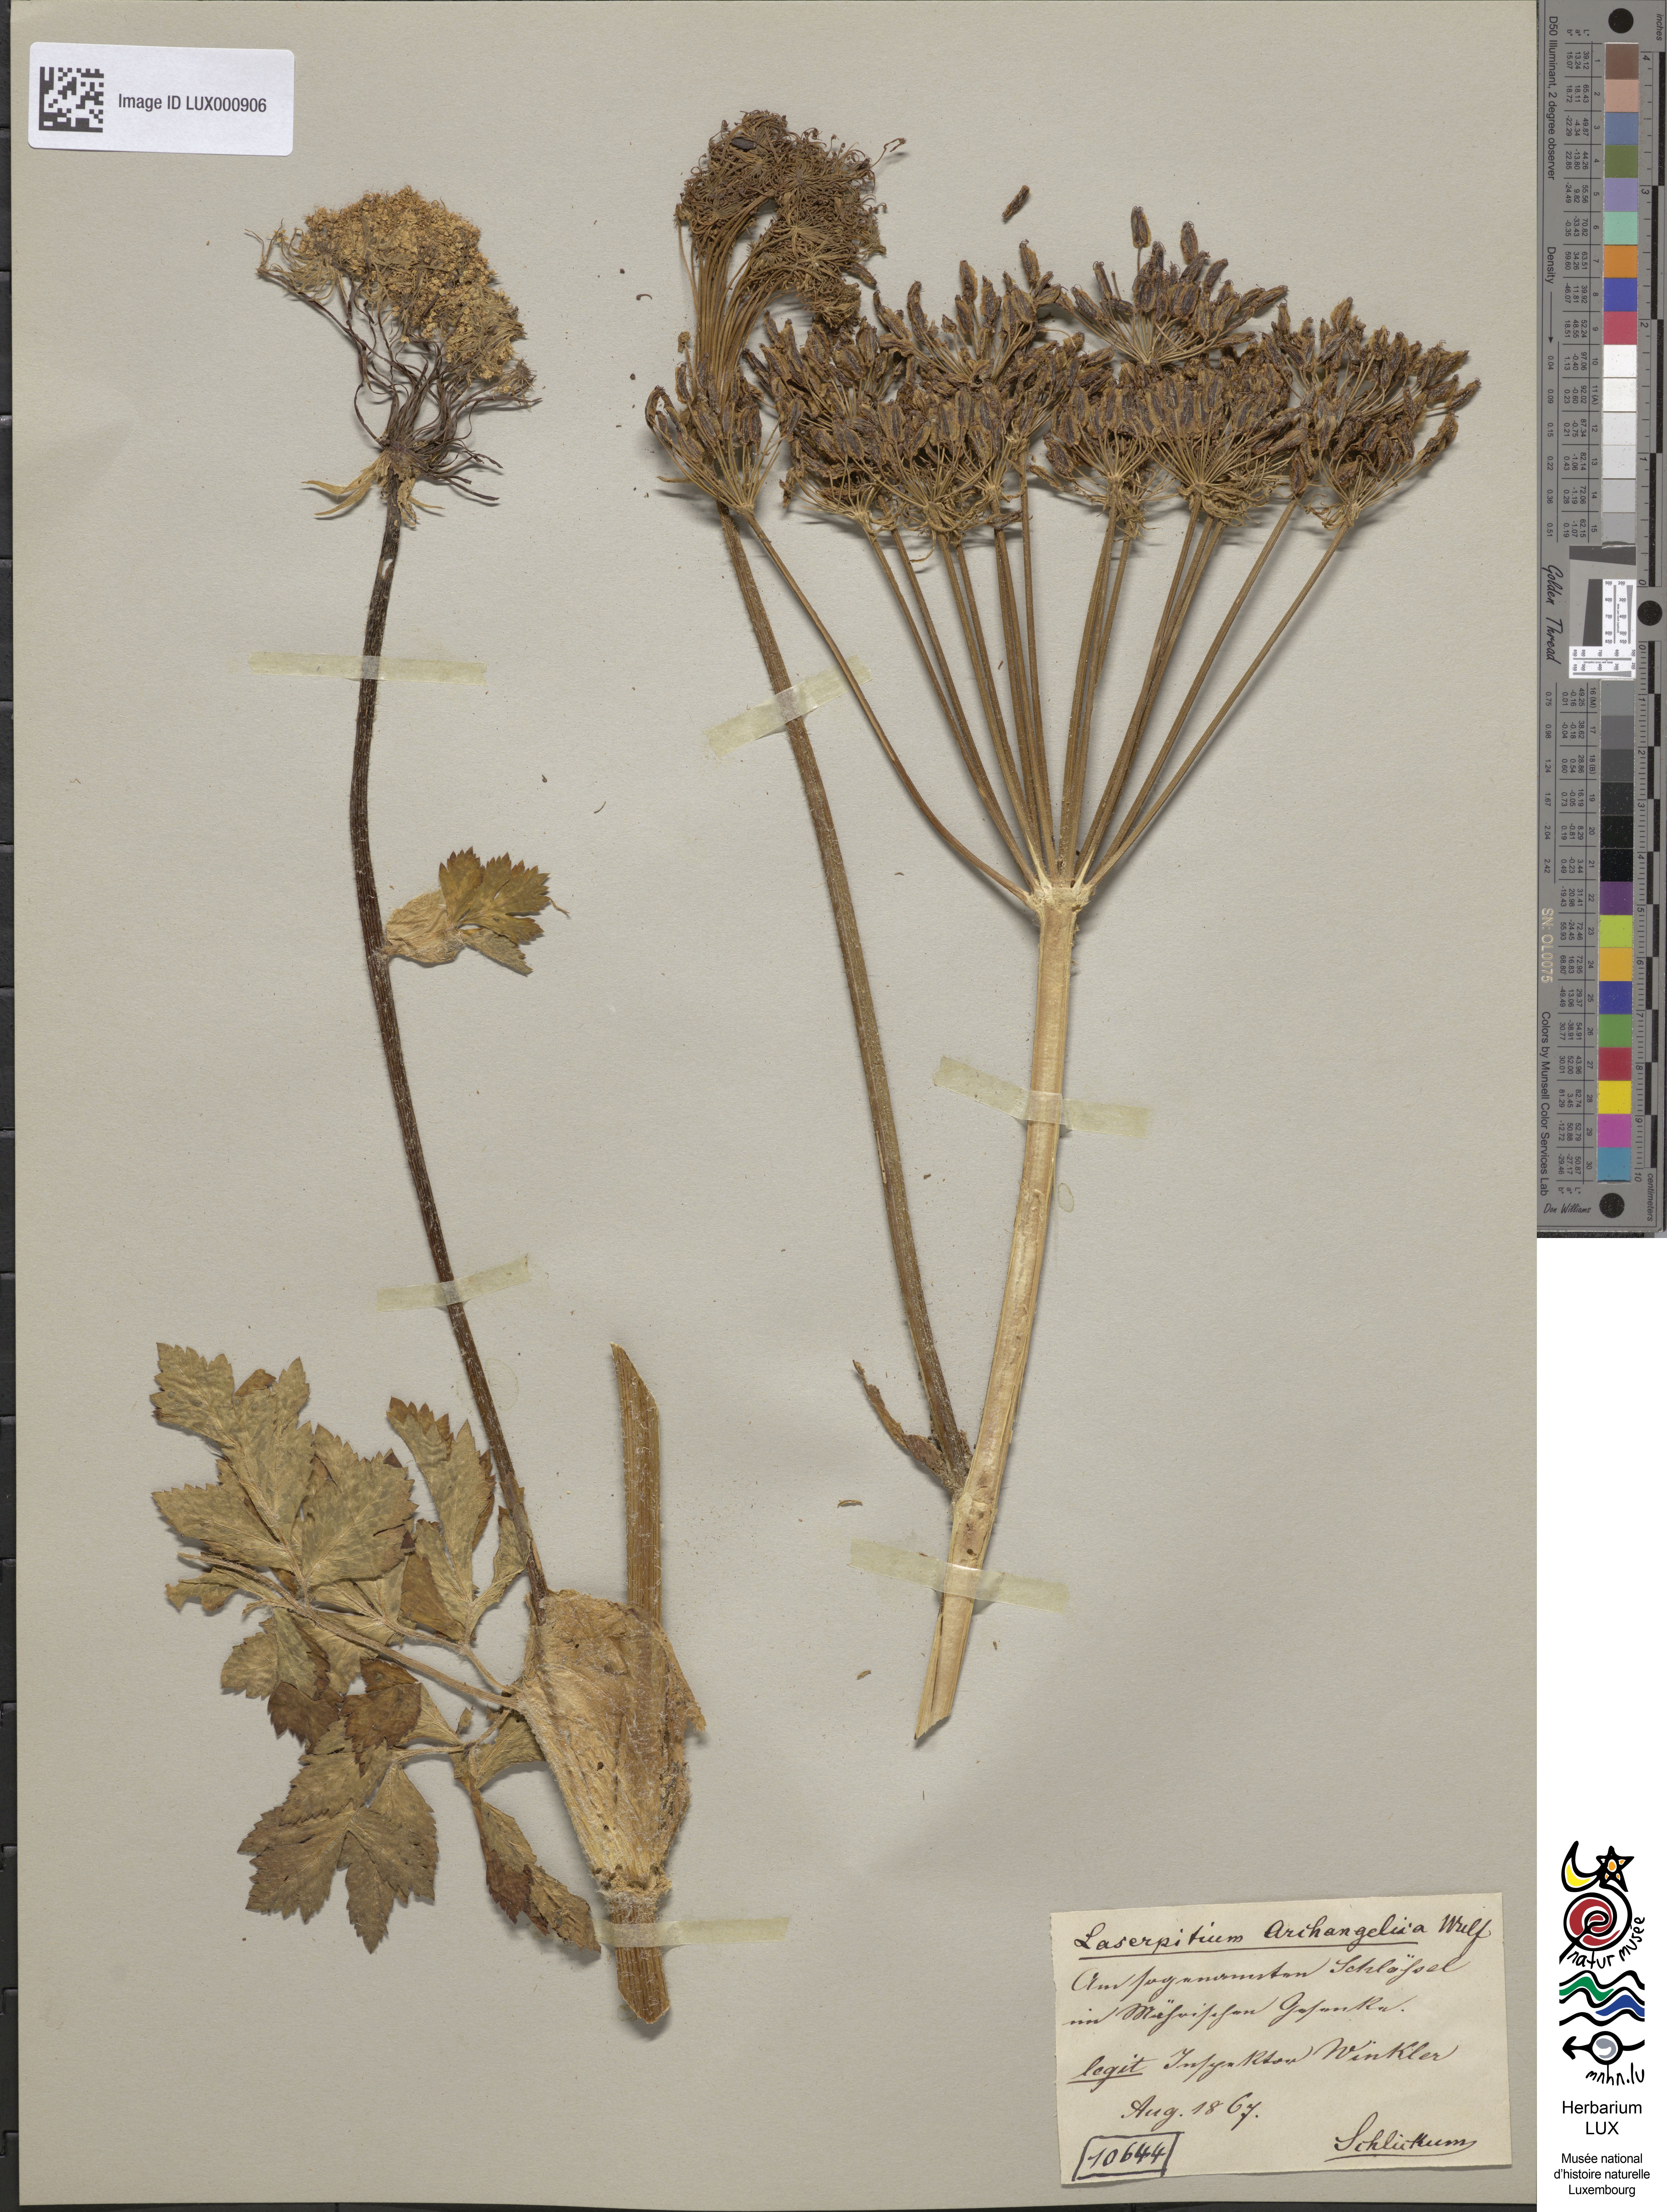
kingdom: Plantae
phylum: Tracheophyta
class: Magnoliopsida
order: Apiales
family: Apiaceae
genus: Laser
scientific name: Laser archangelica
